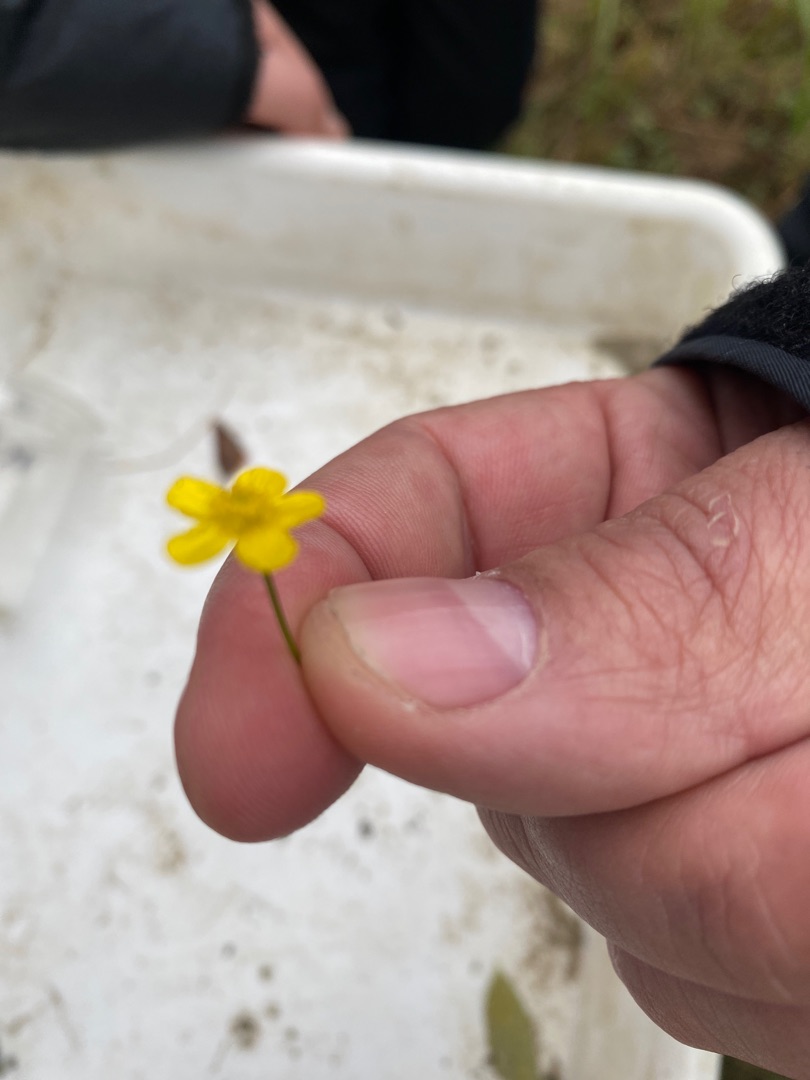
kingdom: Plantae
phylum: Tracheophyta
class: Magnoliopsida
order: Ranunculales
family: Ranunculaceae
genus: Ranunculus
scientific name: Ranunculus flammula
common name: Kær-ranunkel
